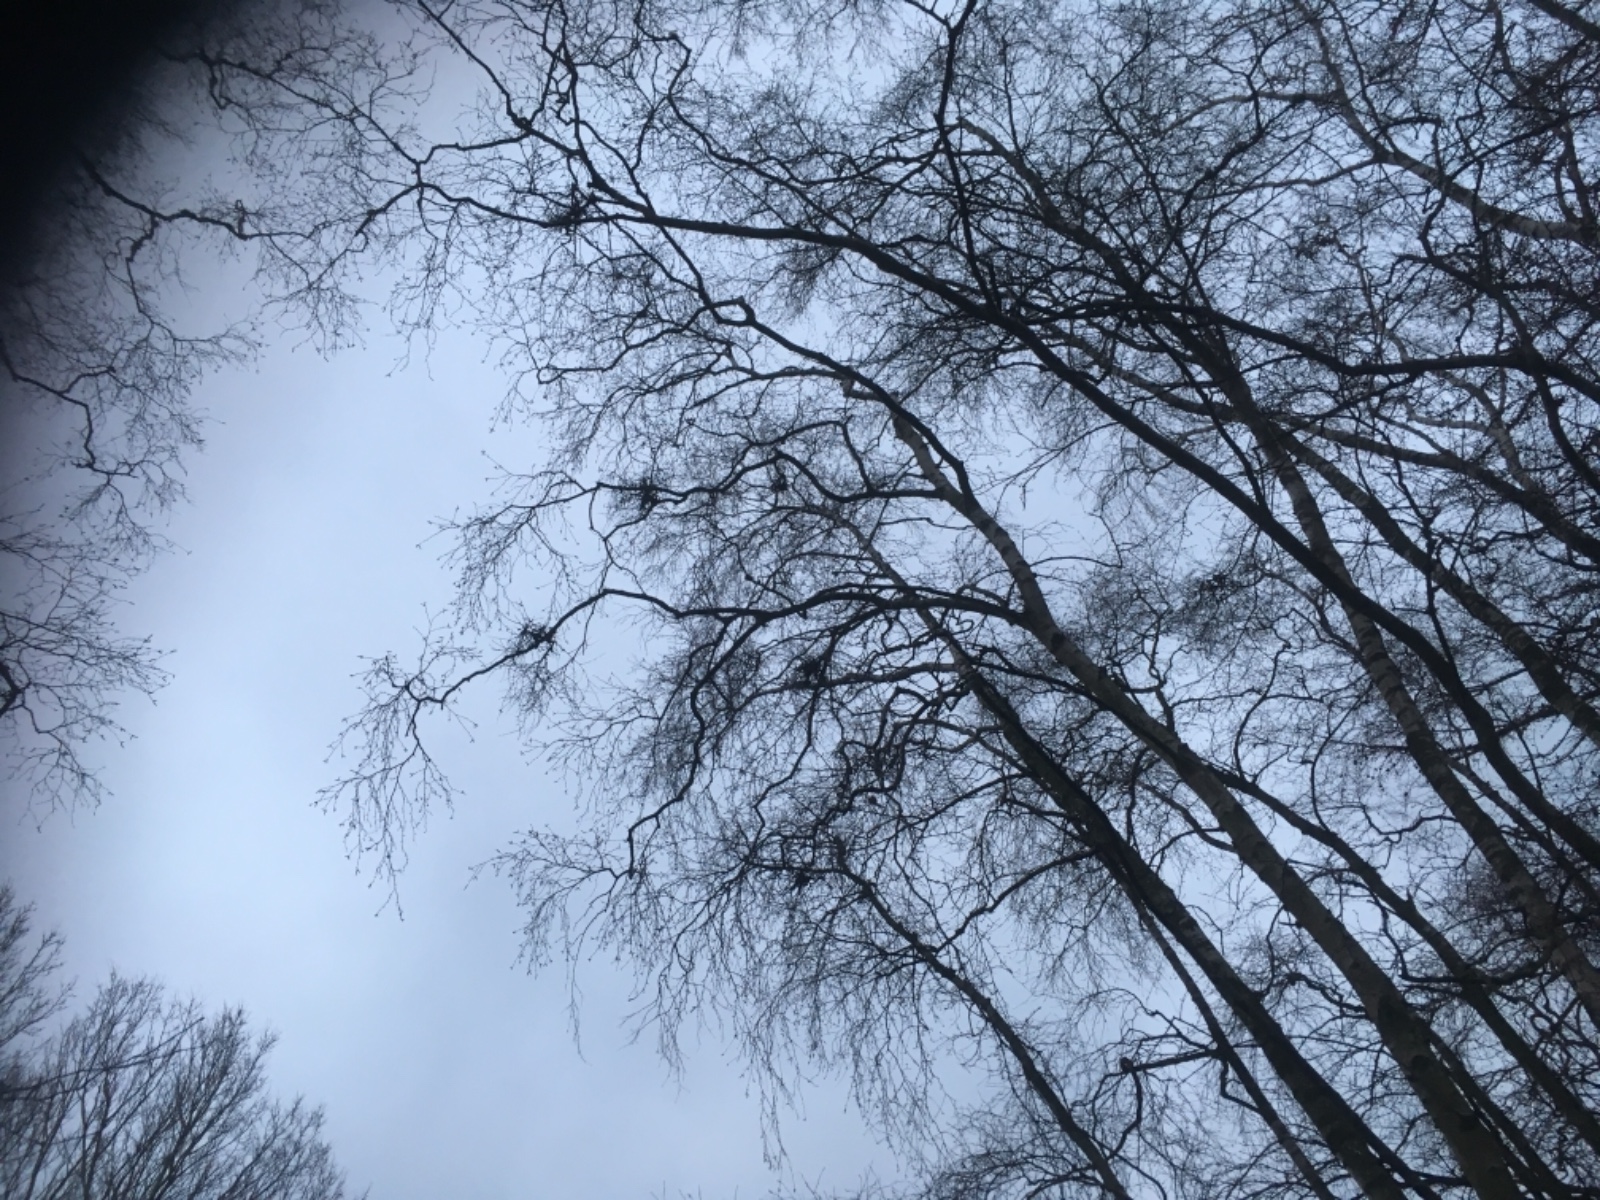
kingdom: Fungi
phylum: Ascomycota
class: Taphrinomycetes
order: Taphrinales
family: Taphrinaceae
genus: Taphrina
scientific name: Taphrina betulina
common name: hekse-sækdug
